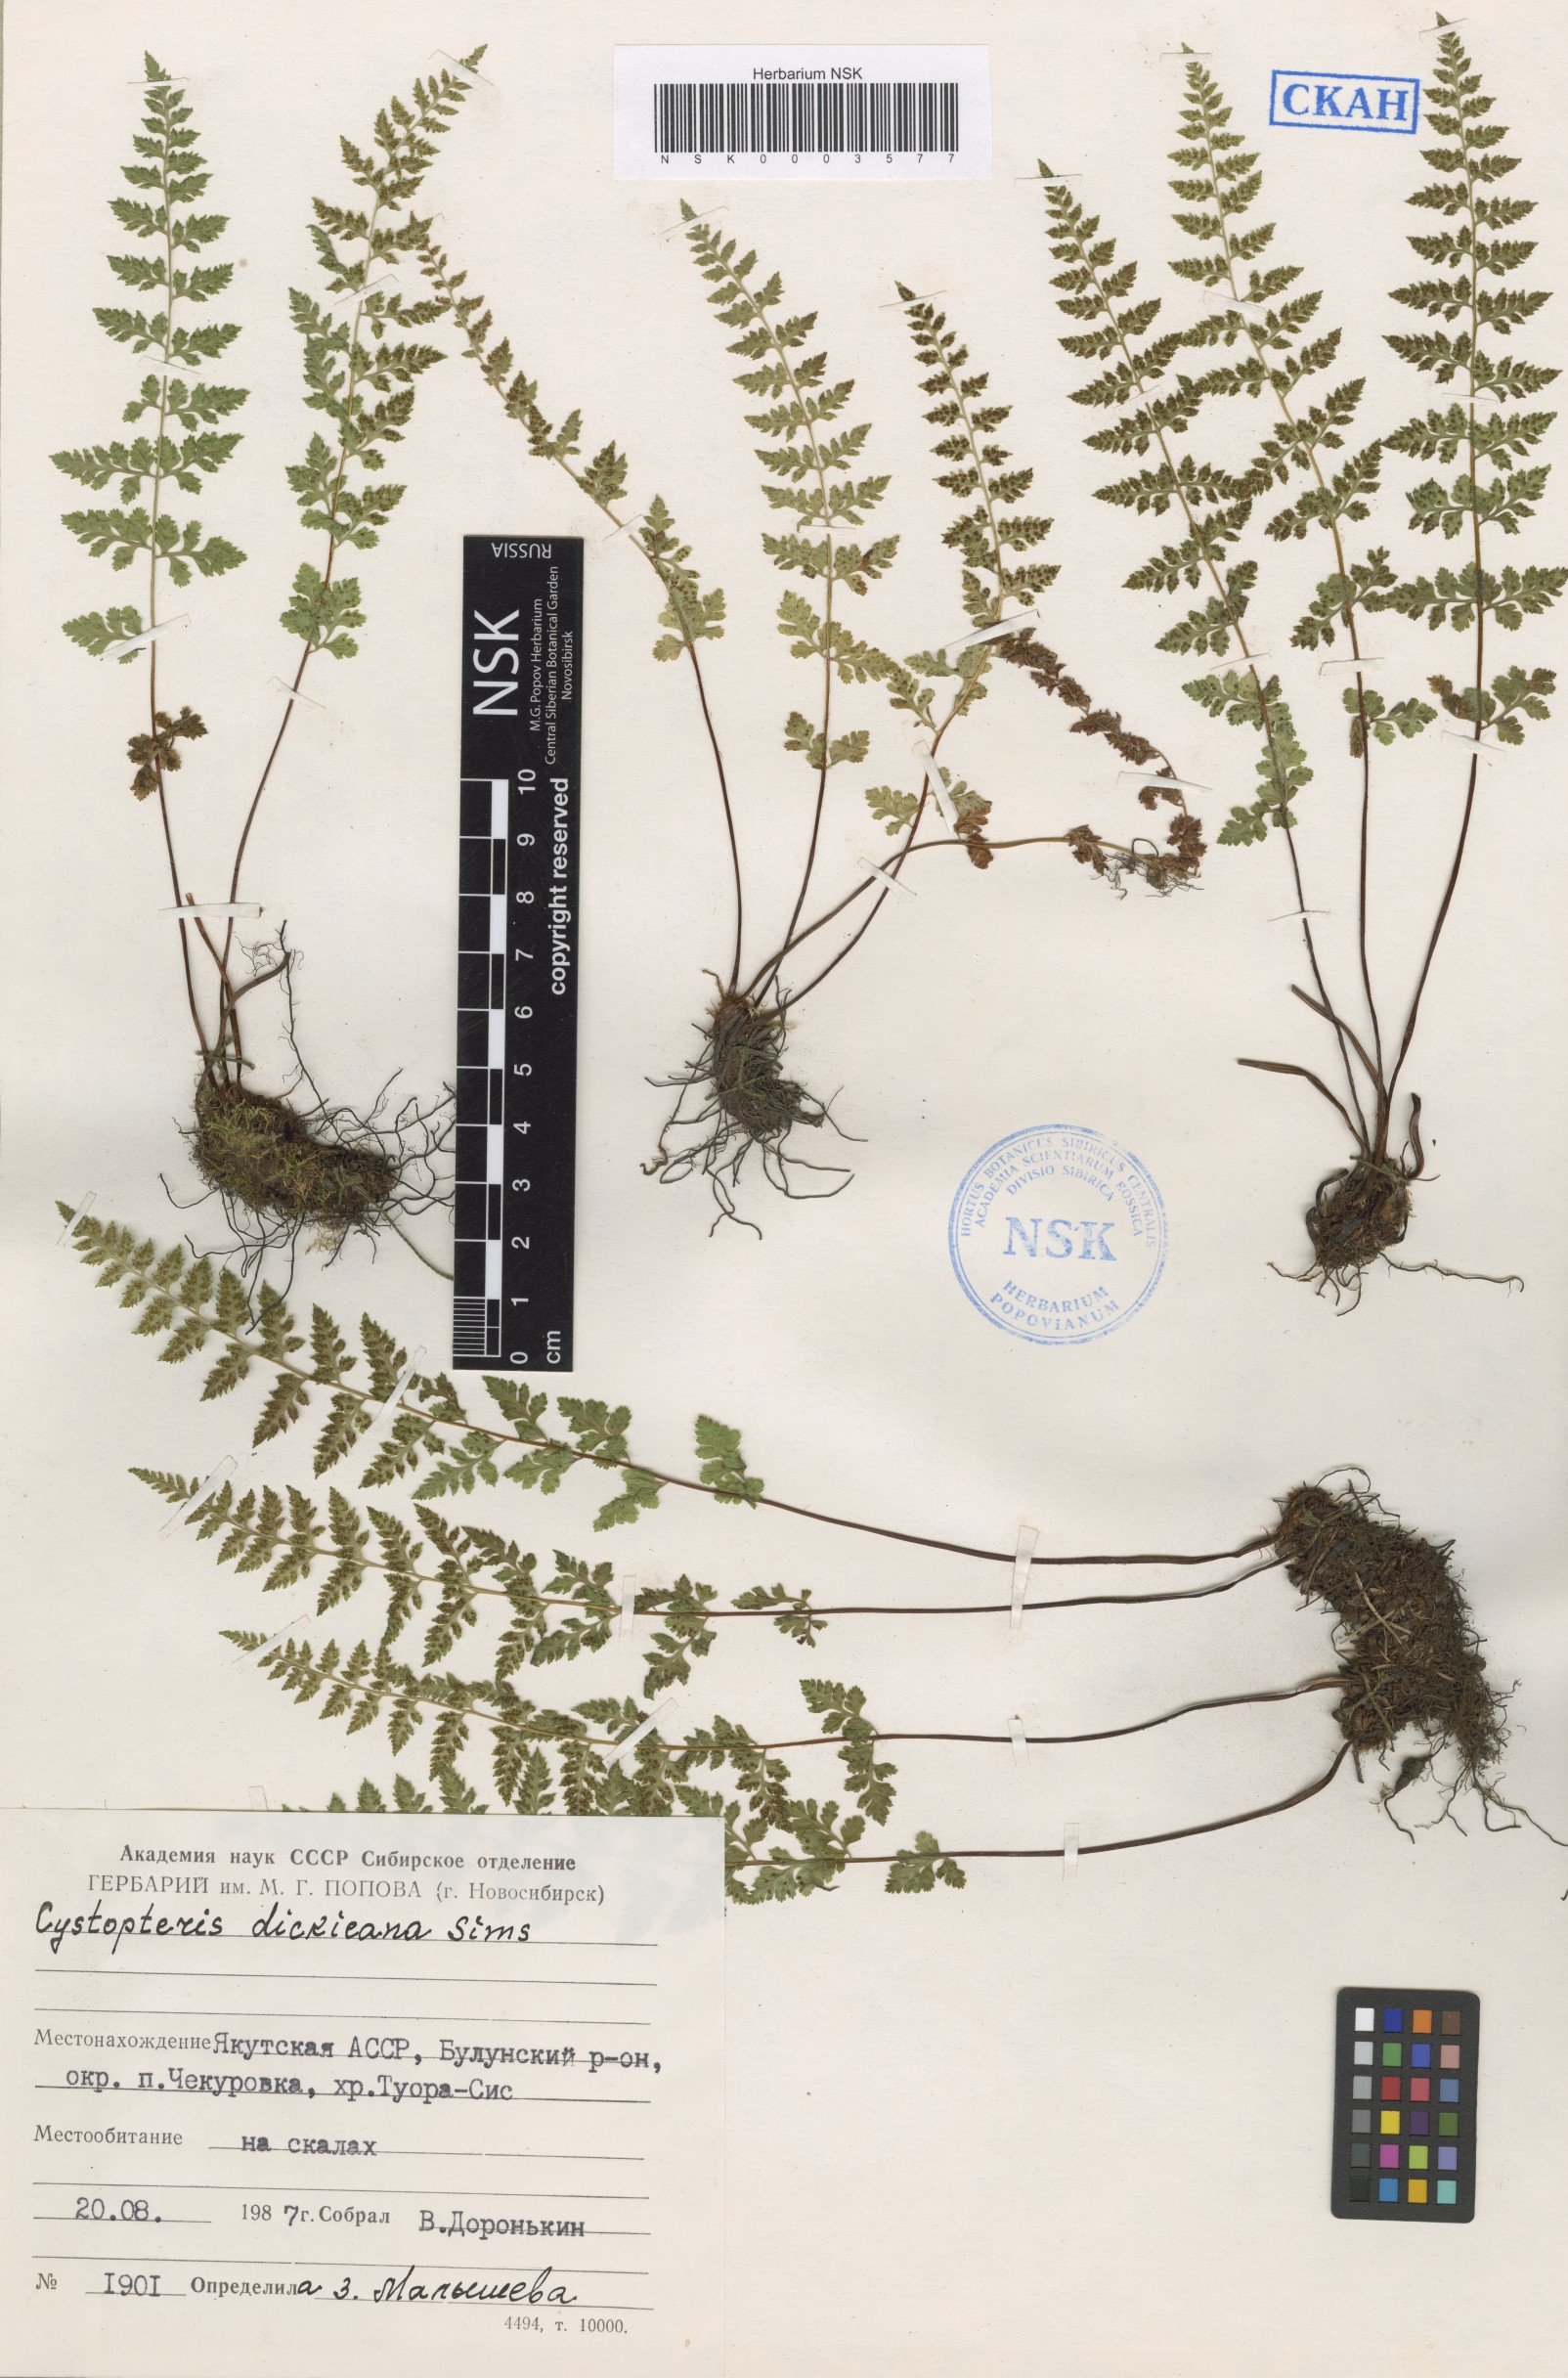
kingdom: Plantae
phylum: Tracheophyta
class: Polypodiopsida
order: Polypodiales
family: Cystopteridaceae
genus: Cystopteris
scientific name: Cystopteris dickieana
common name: Dickie's bladder-fern
